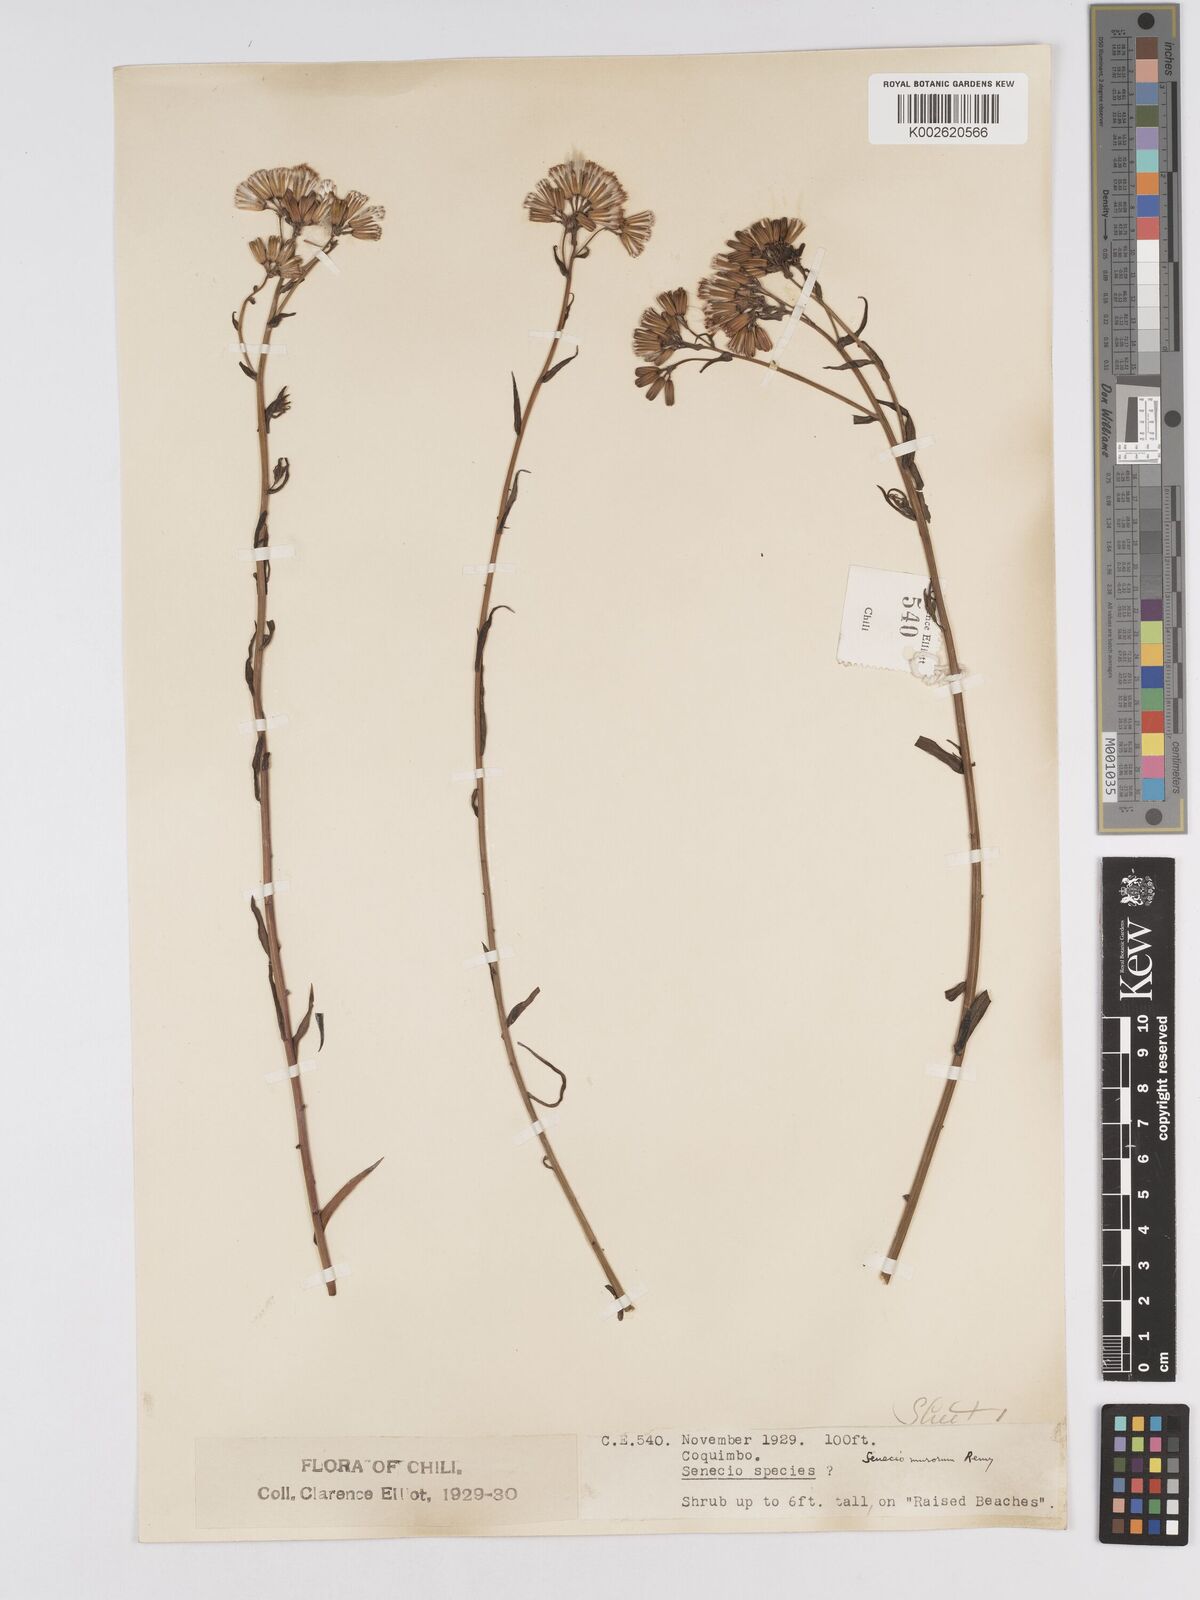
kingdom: Plantae
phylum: Tracheophyta
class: Magnoliopsida
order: Asterales
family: Asteraceae
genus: Senecio
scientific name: Senecio murorum
